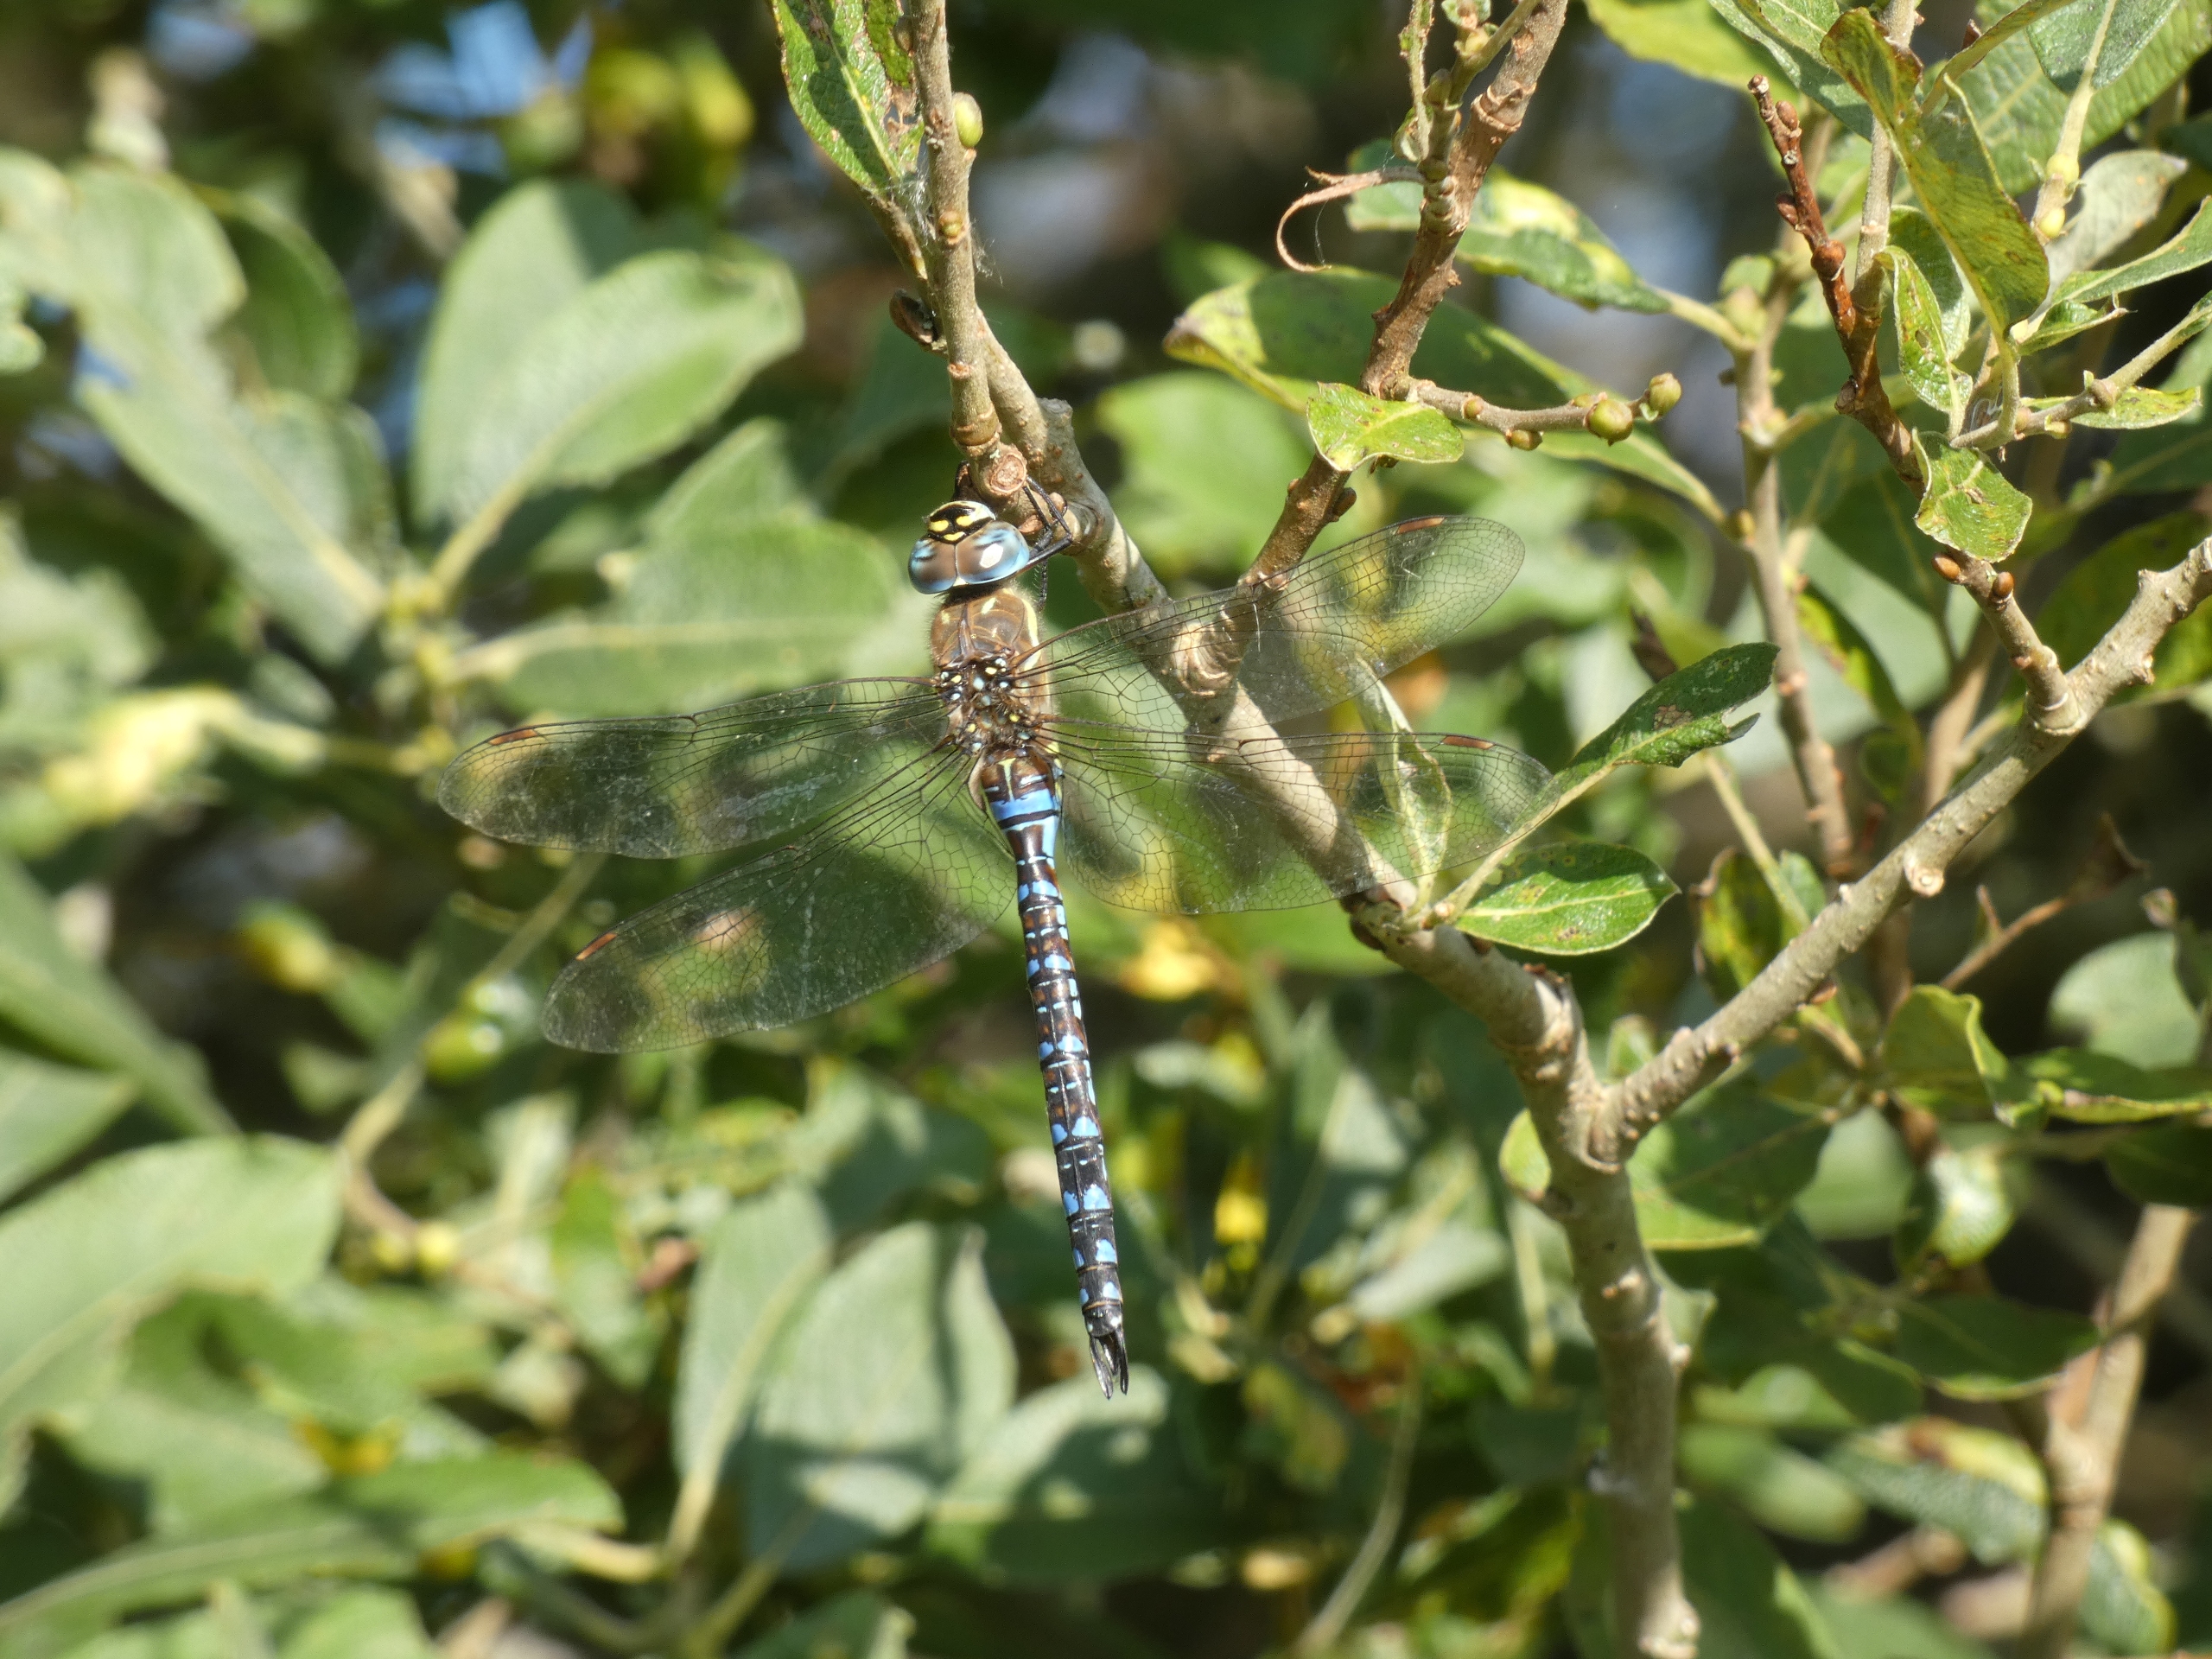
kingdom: Animalia
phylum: Arthropoda
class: Insecta
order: Odonata
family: Aeshnidae
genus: Aeshna
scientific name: Aeshna mixta
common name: Efterårs-mosaikguldsmed
